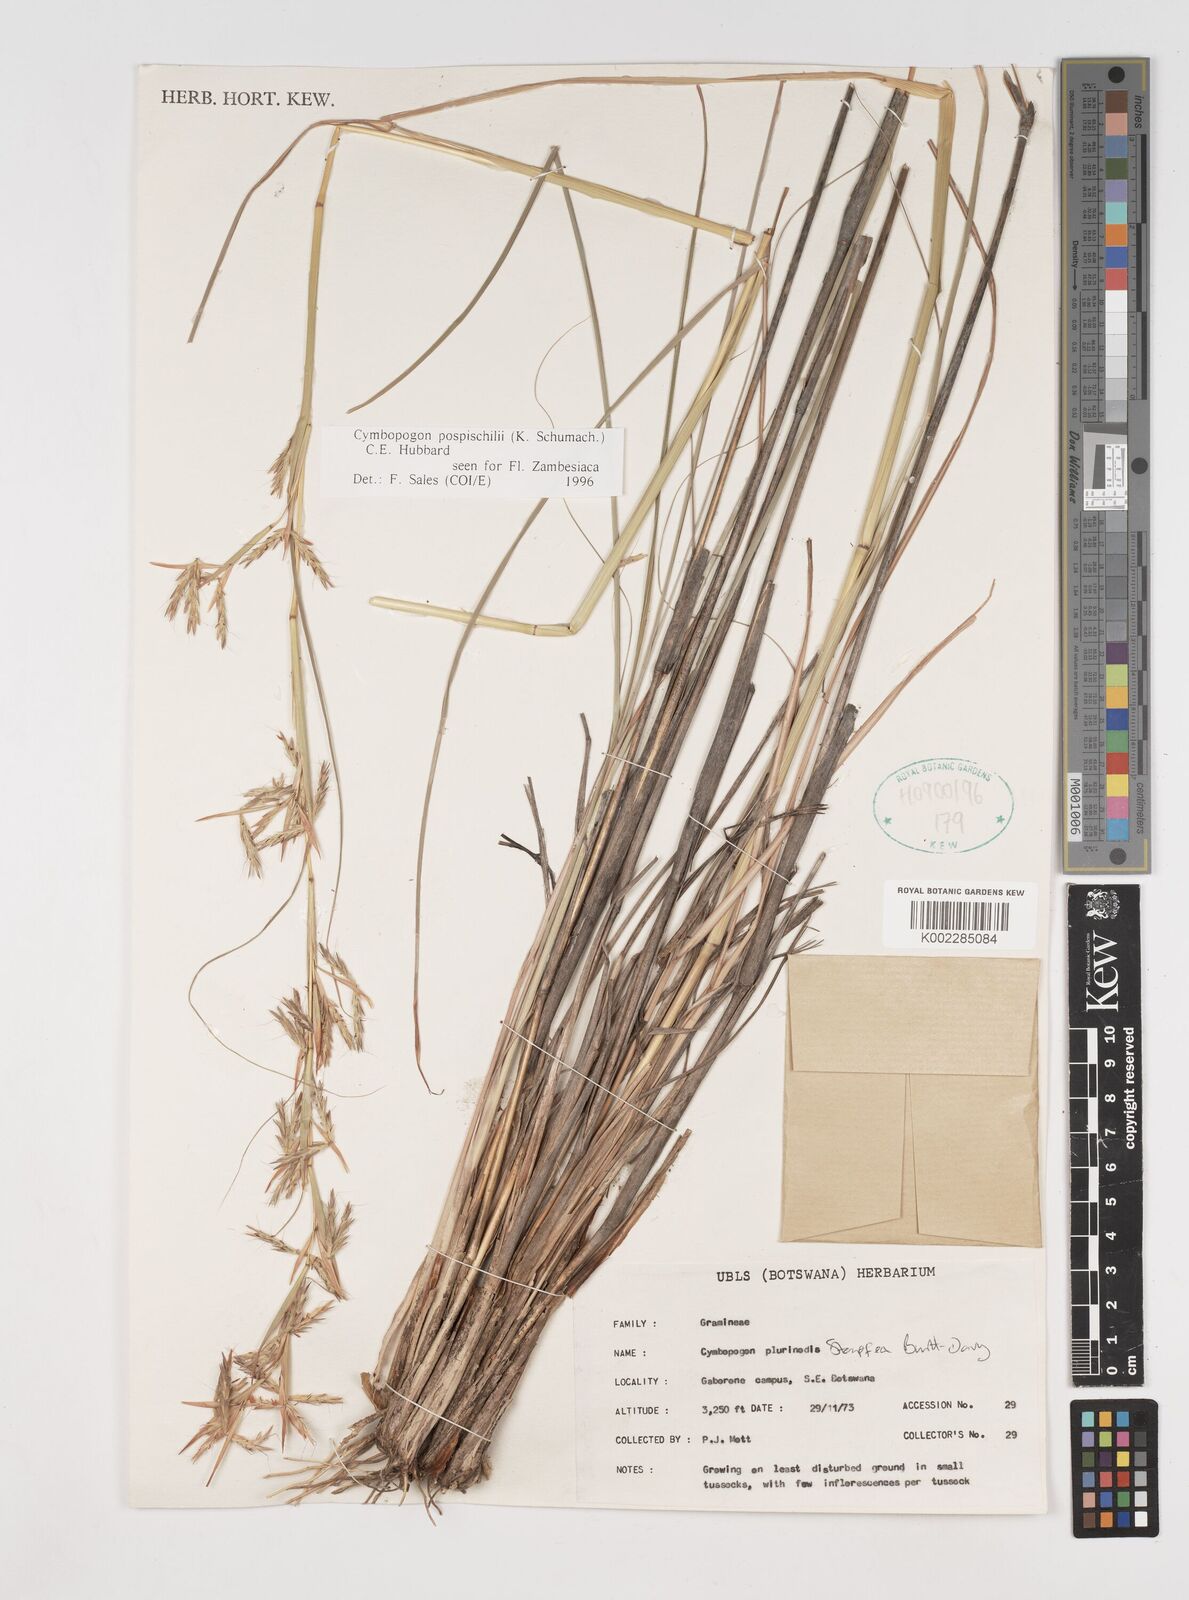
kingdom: Plantae
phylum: Tracheophyta
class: Liliopsida
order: Poales
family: Poaceae
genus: Cymbopogon
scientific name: Cymbopogon pospischilii
